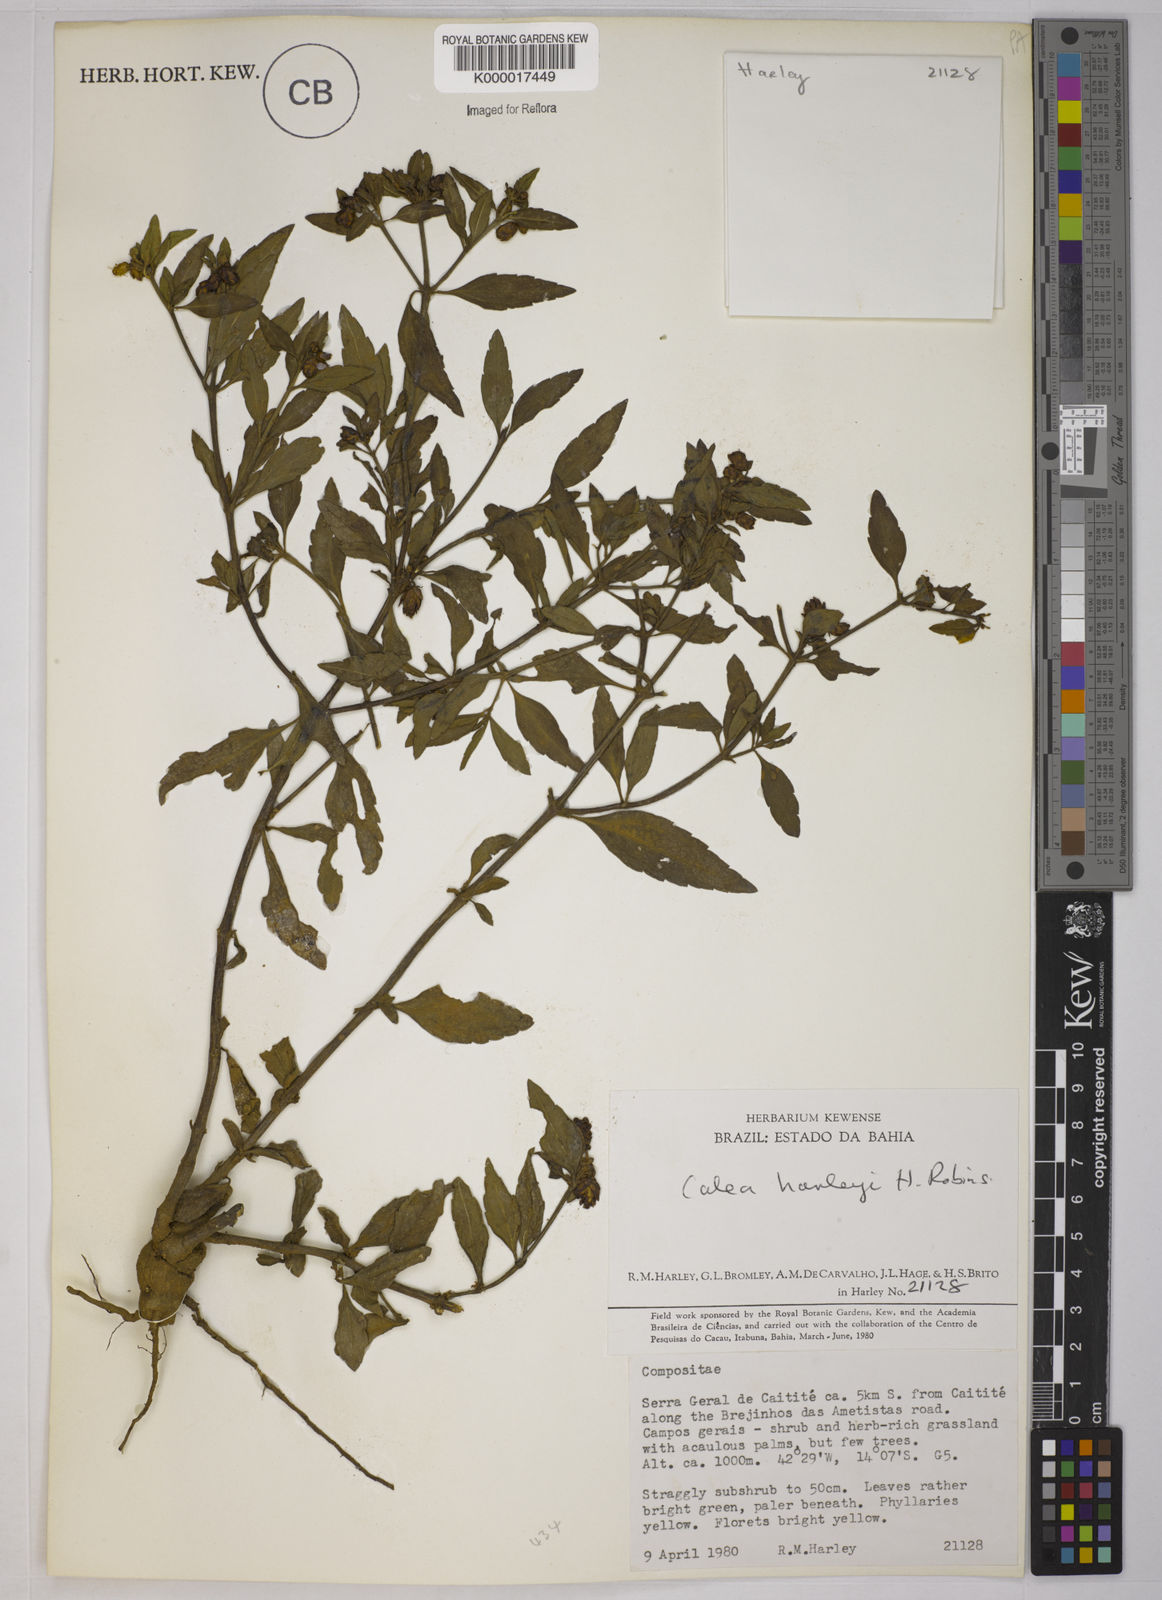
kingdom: Plantae
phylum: Tracheophyta
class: Magnoliopsida
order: Asterales
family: Asteraceae
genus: Calea
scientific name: Calea harleyi
